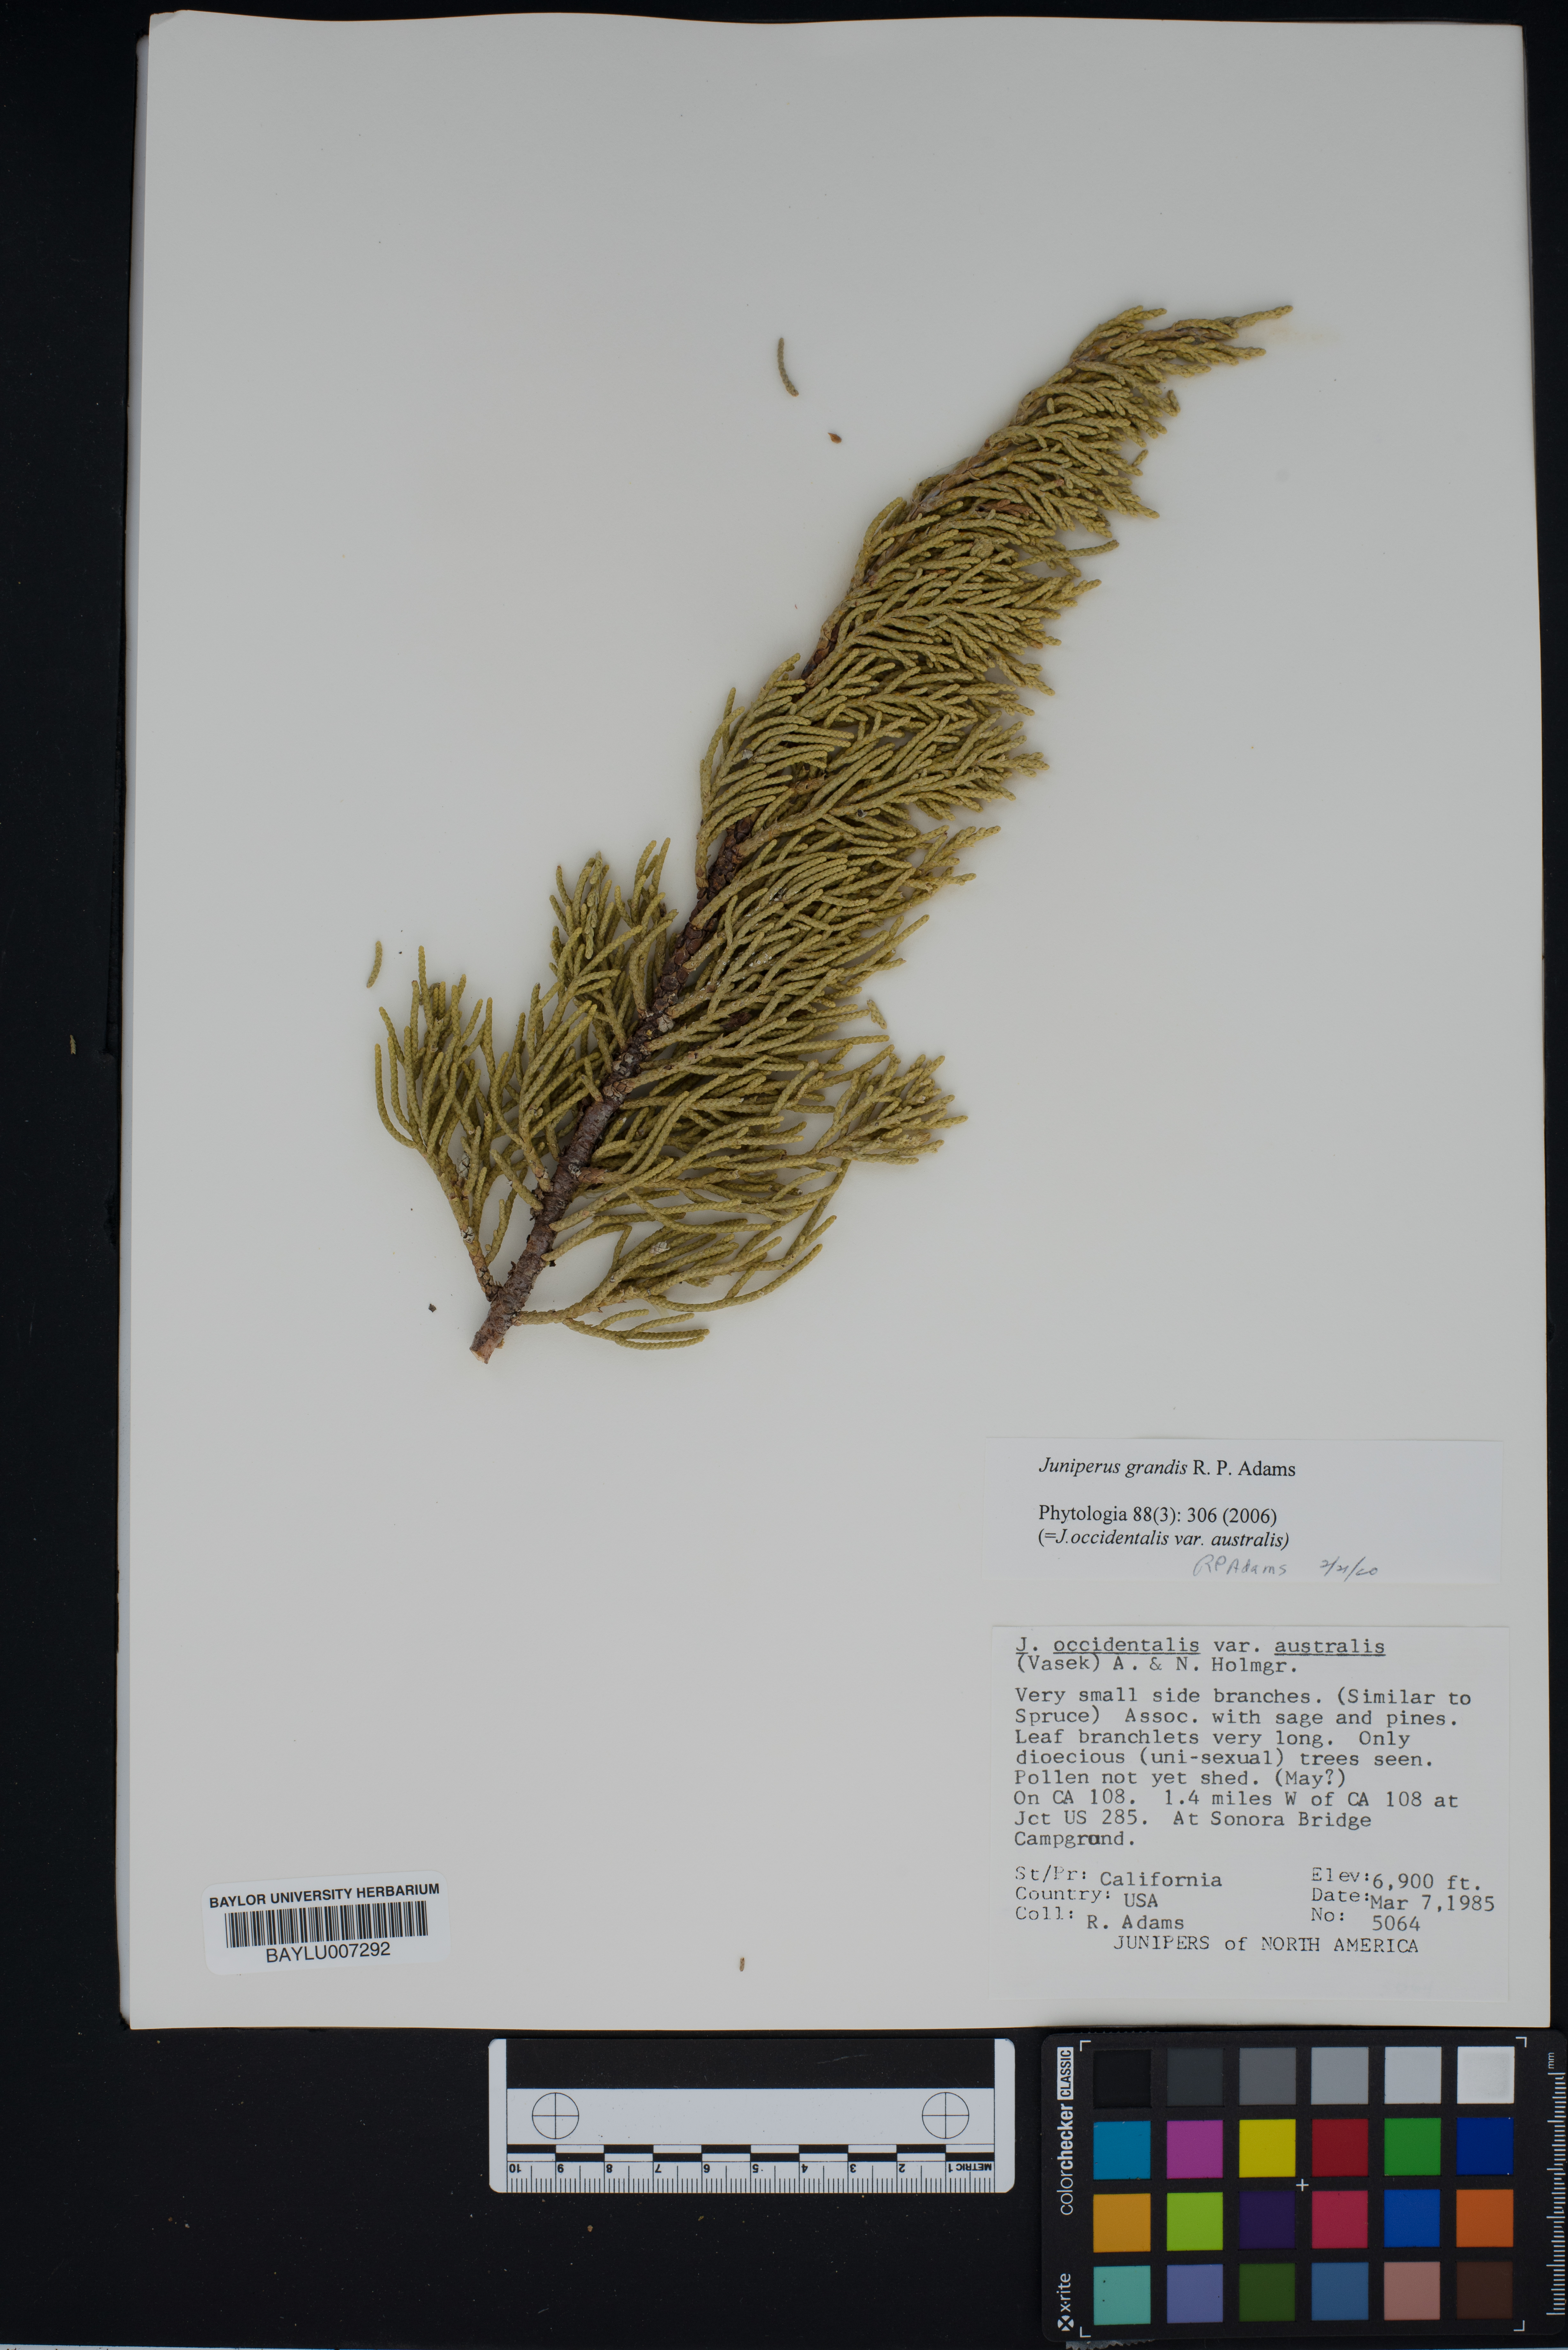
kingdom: Plantae
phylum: Tracheophyta
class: Pinopsida
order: Pinales
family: Cupressaceae
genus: Juniperus
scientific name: Juniperus occidentalis
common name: Western juniper
